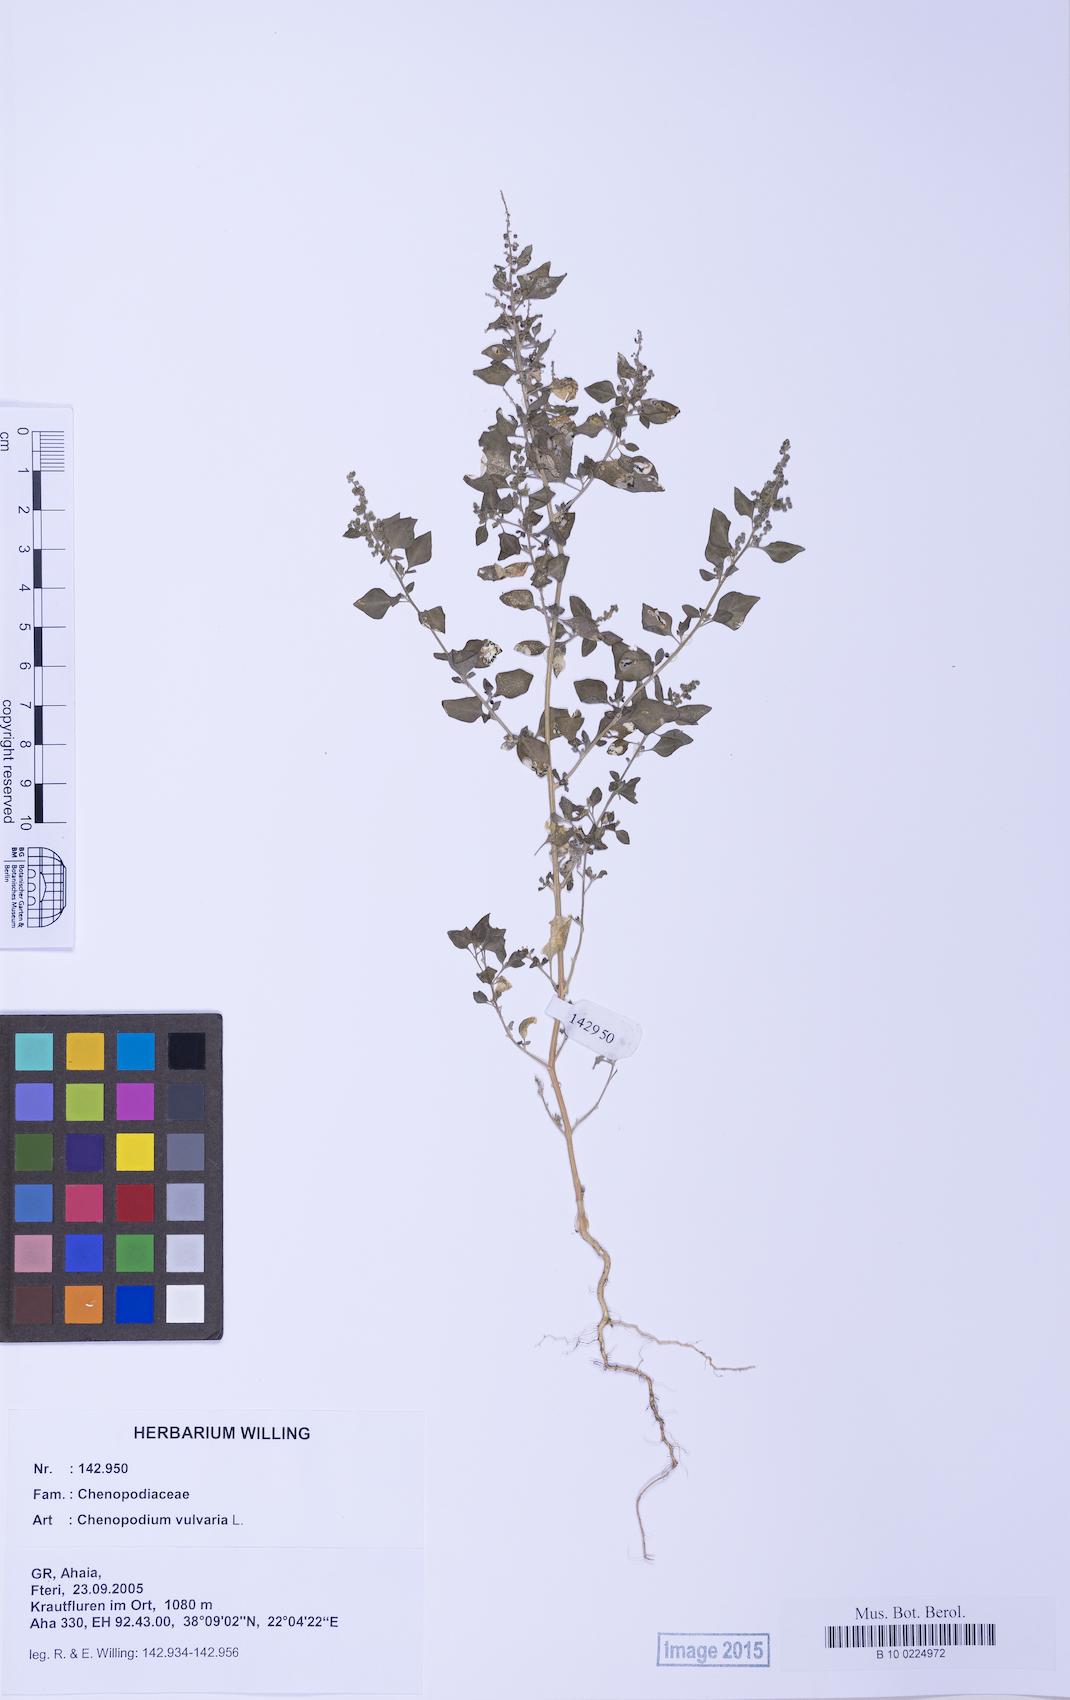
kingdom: Plantae
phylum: Tracheophyta
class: Magnoliopsida
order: Caryophyllales
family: Amaranthaceae
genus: Chenopodium
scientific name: Chenopodium vulvaria
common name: Stinking goosefoot
